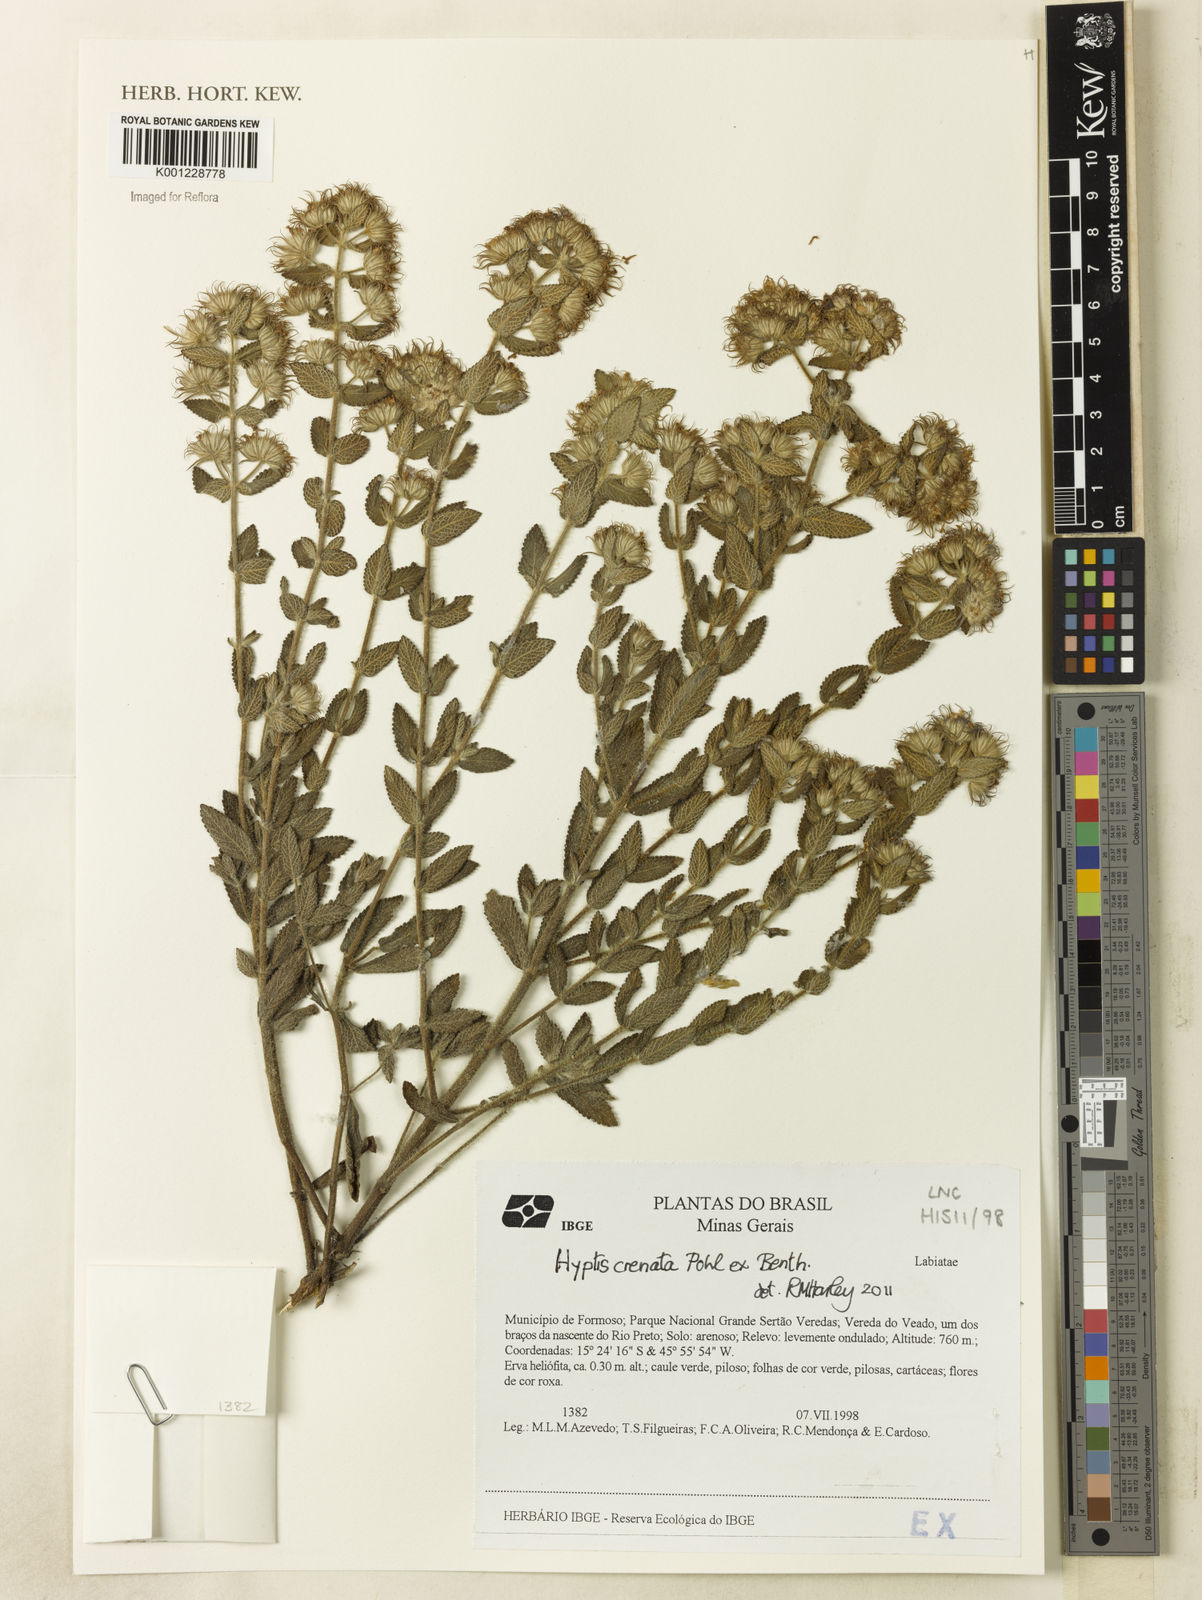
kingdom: Plantae
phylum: Tracheophyta
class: Magnoliopsida
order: Lamiales
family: Lamiaceae
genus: Hyptis
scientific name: Hyptis crenata
